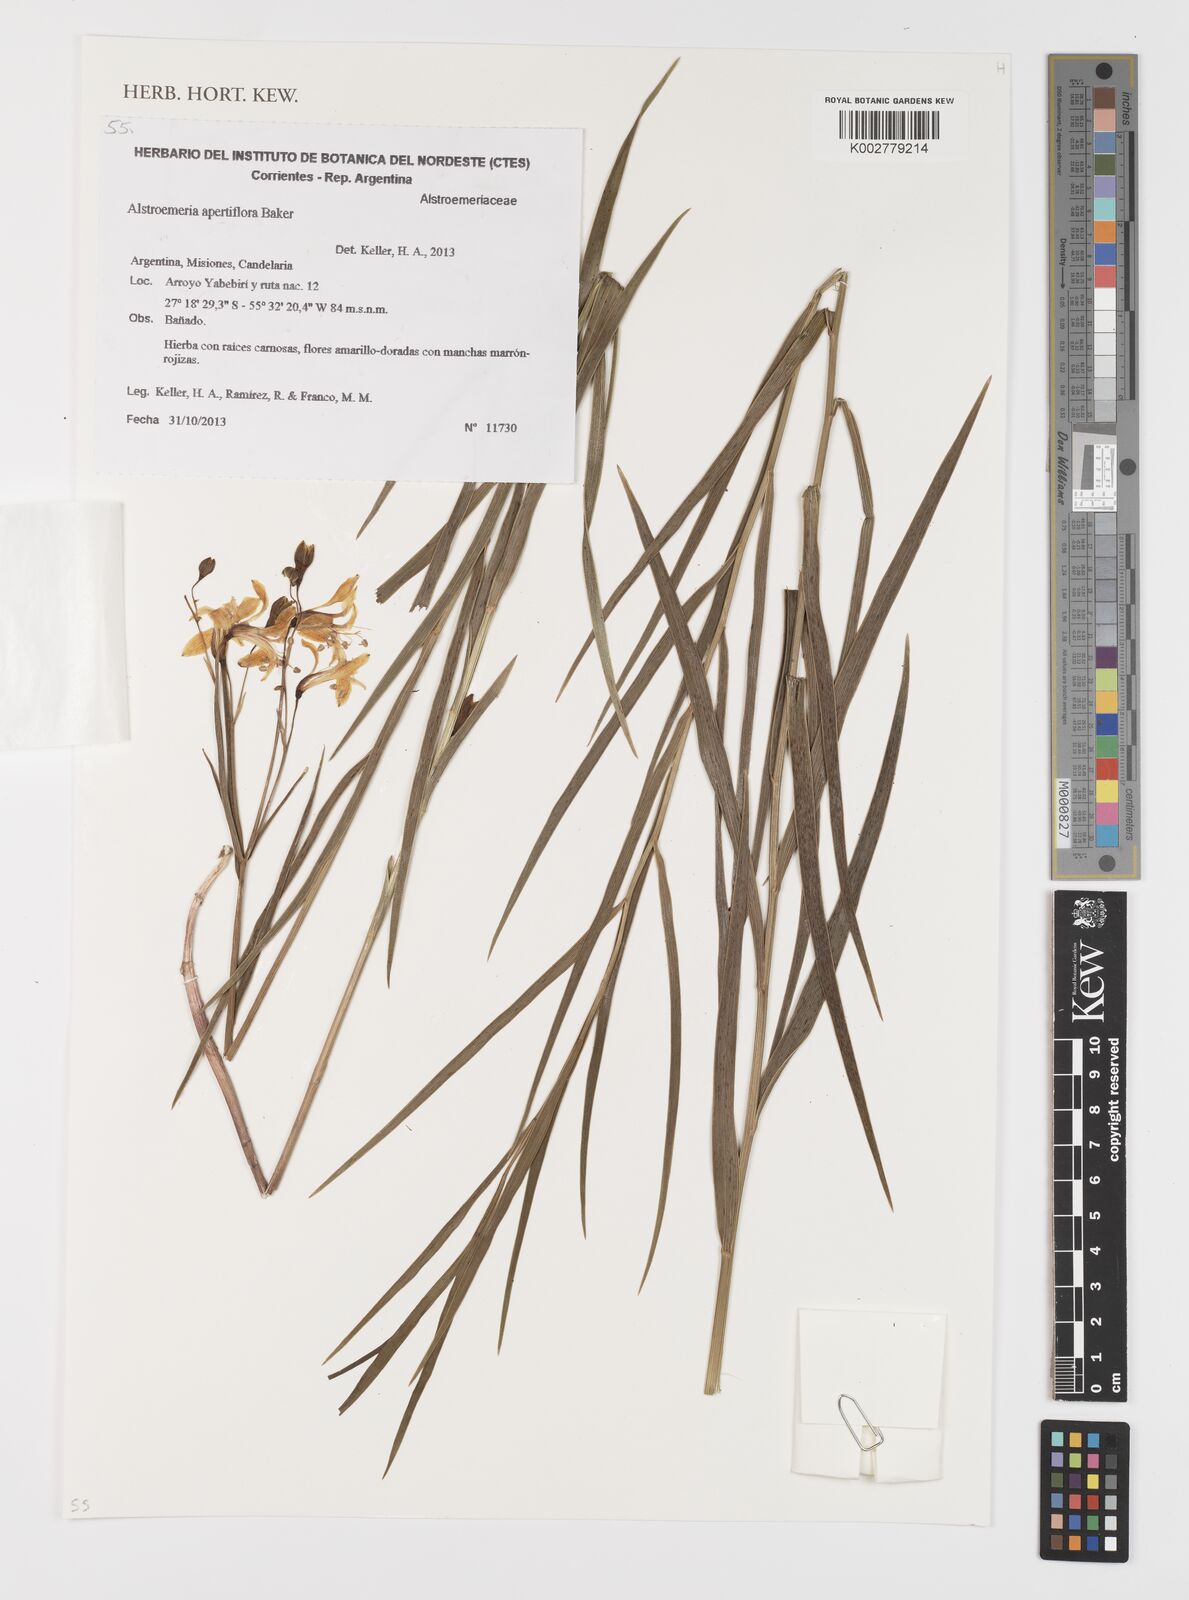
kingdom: Plantae
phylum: Tracheophyta
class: Liliopsida
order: Liliales
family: Alstroemeriaceae
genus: Alstroemeria
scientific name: Alstroemeria apertiflora
